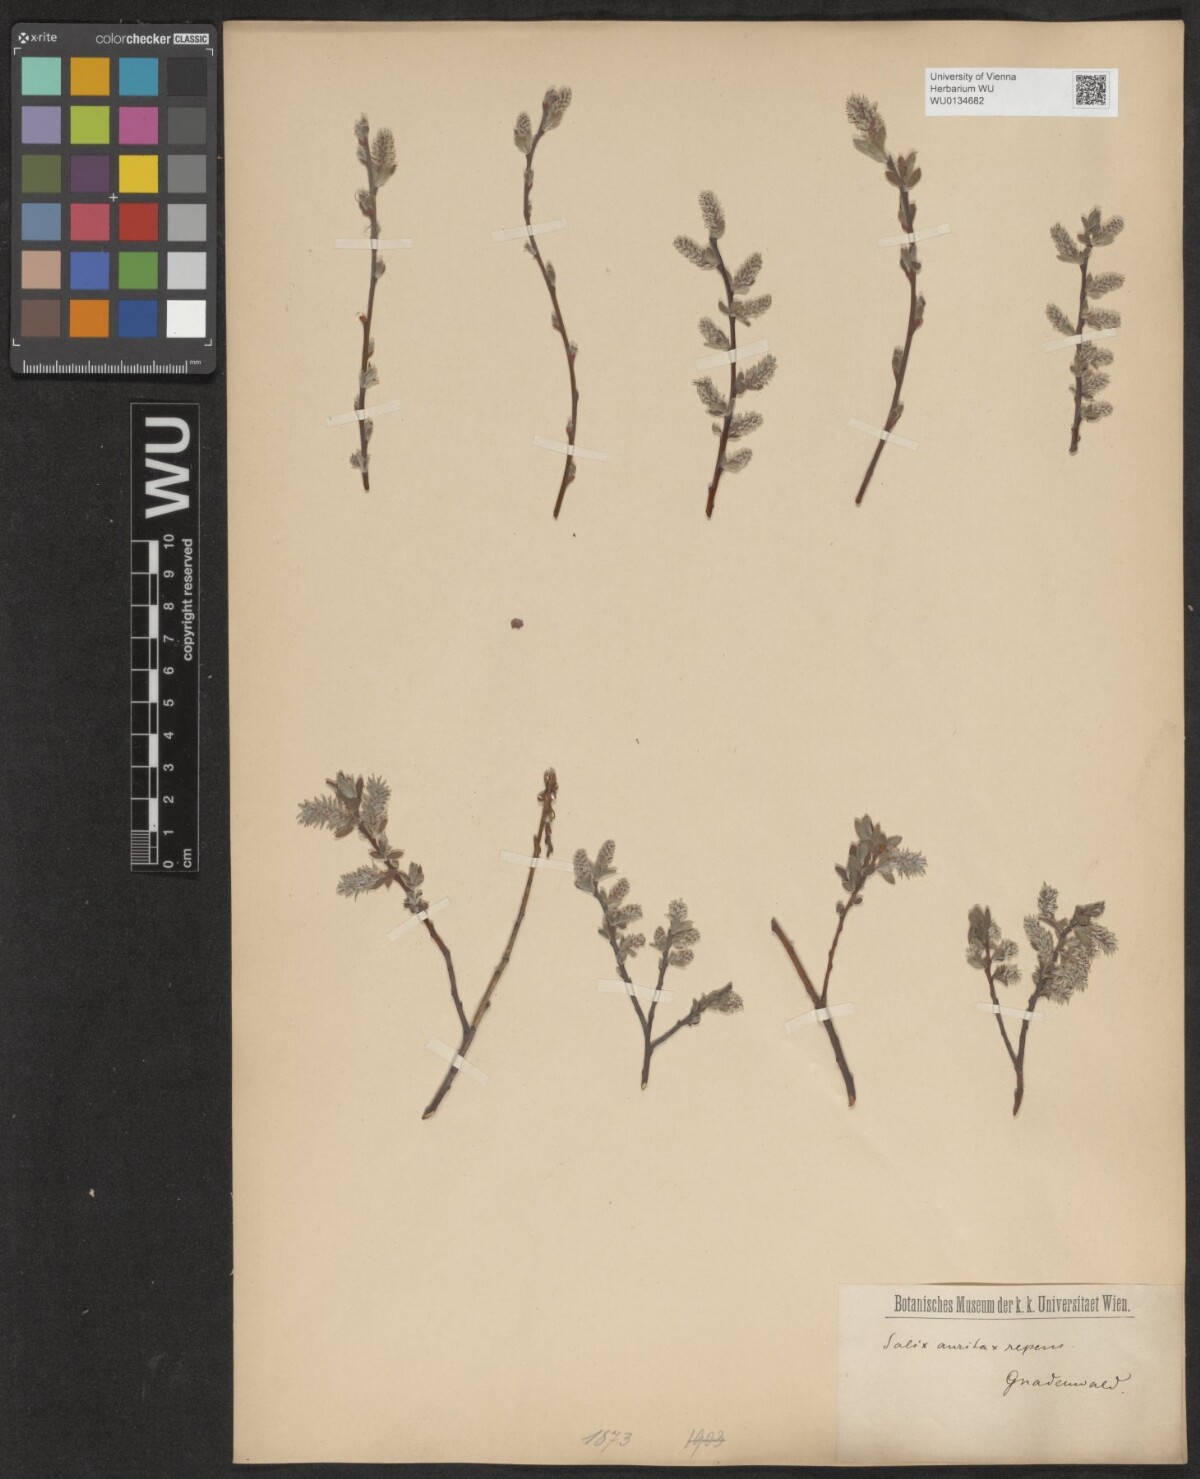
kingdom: Plantae
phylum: Tracheophyta
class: Magnoliopsida
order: Malpighiales
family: Salicaceae
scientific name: Salicaceae
